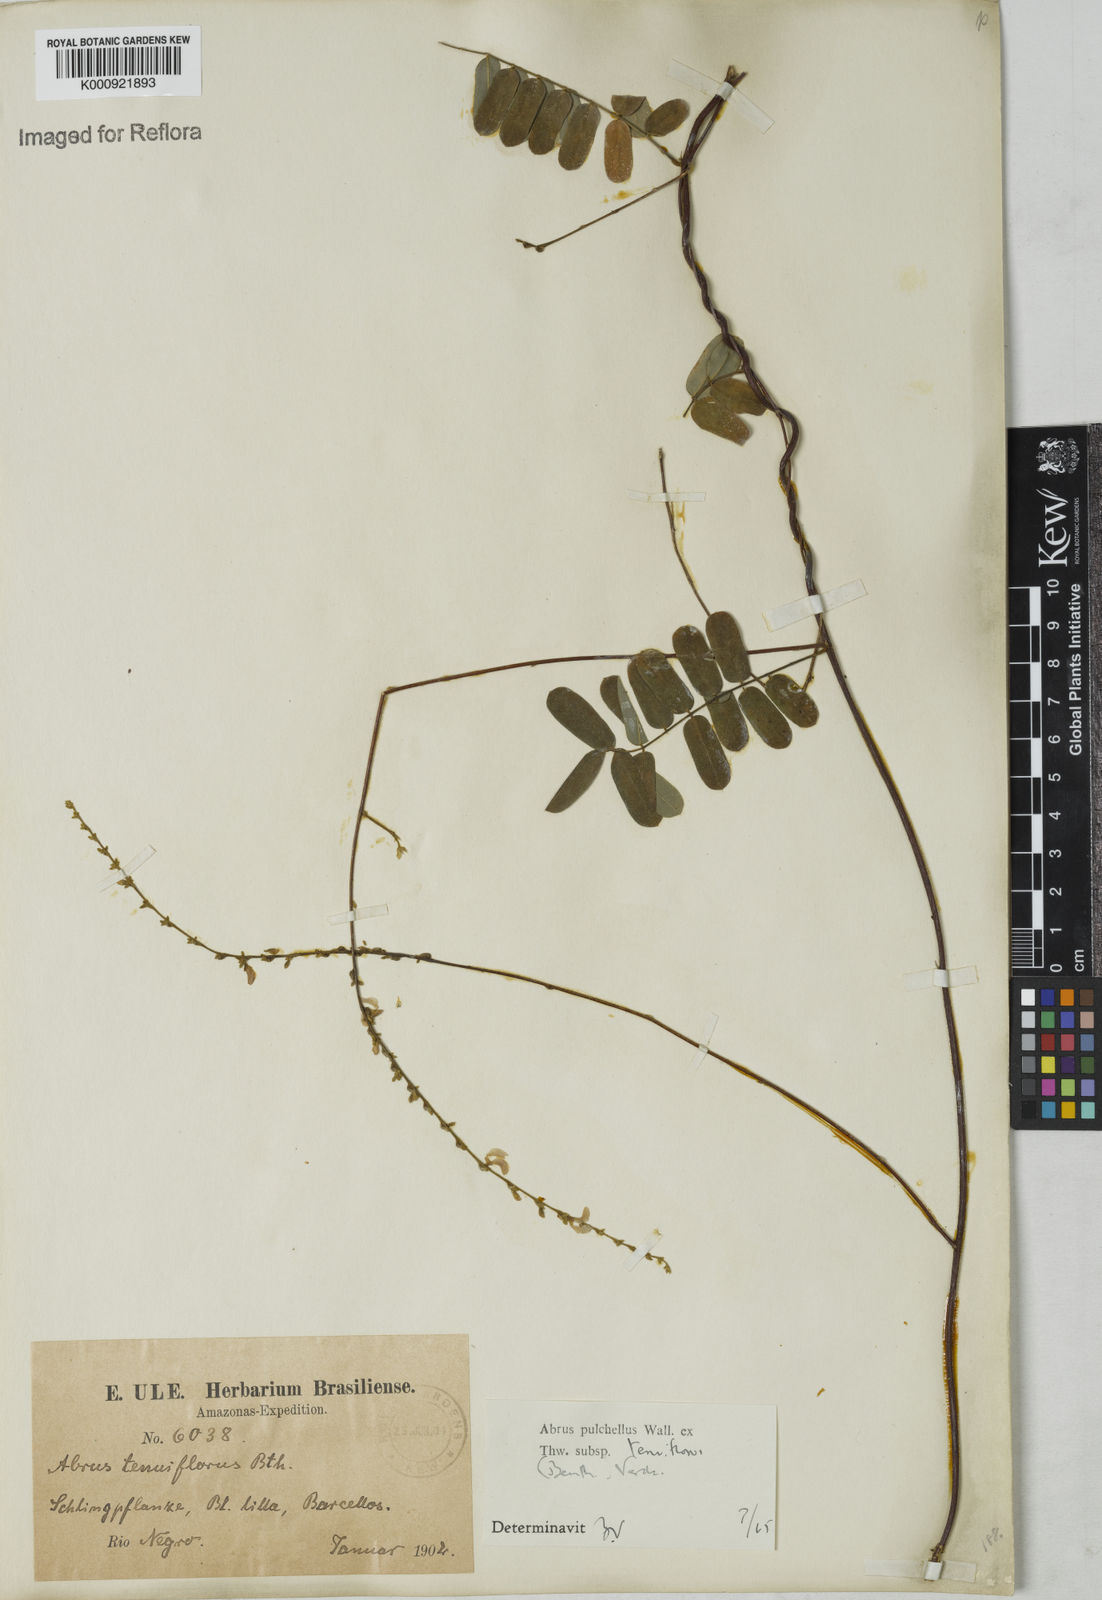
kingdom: Plantae
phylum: Tracheophyta
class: Magnoliopsida
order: Fabales
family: Fabaceae
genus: Abrus
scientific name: Abrus melanospermus
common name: Licorice-root
